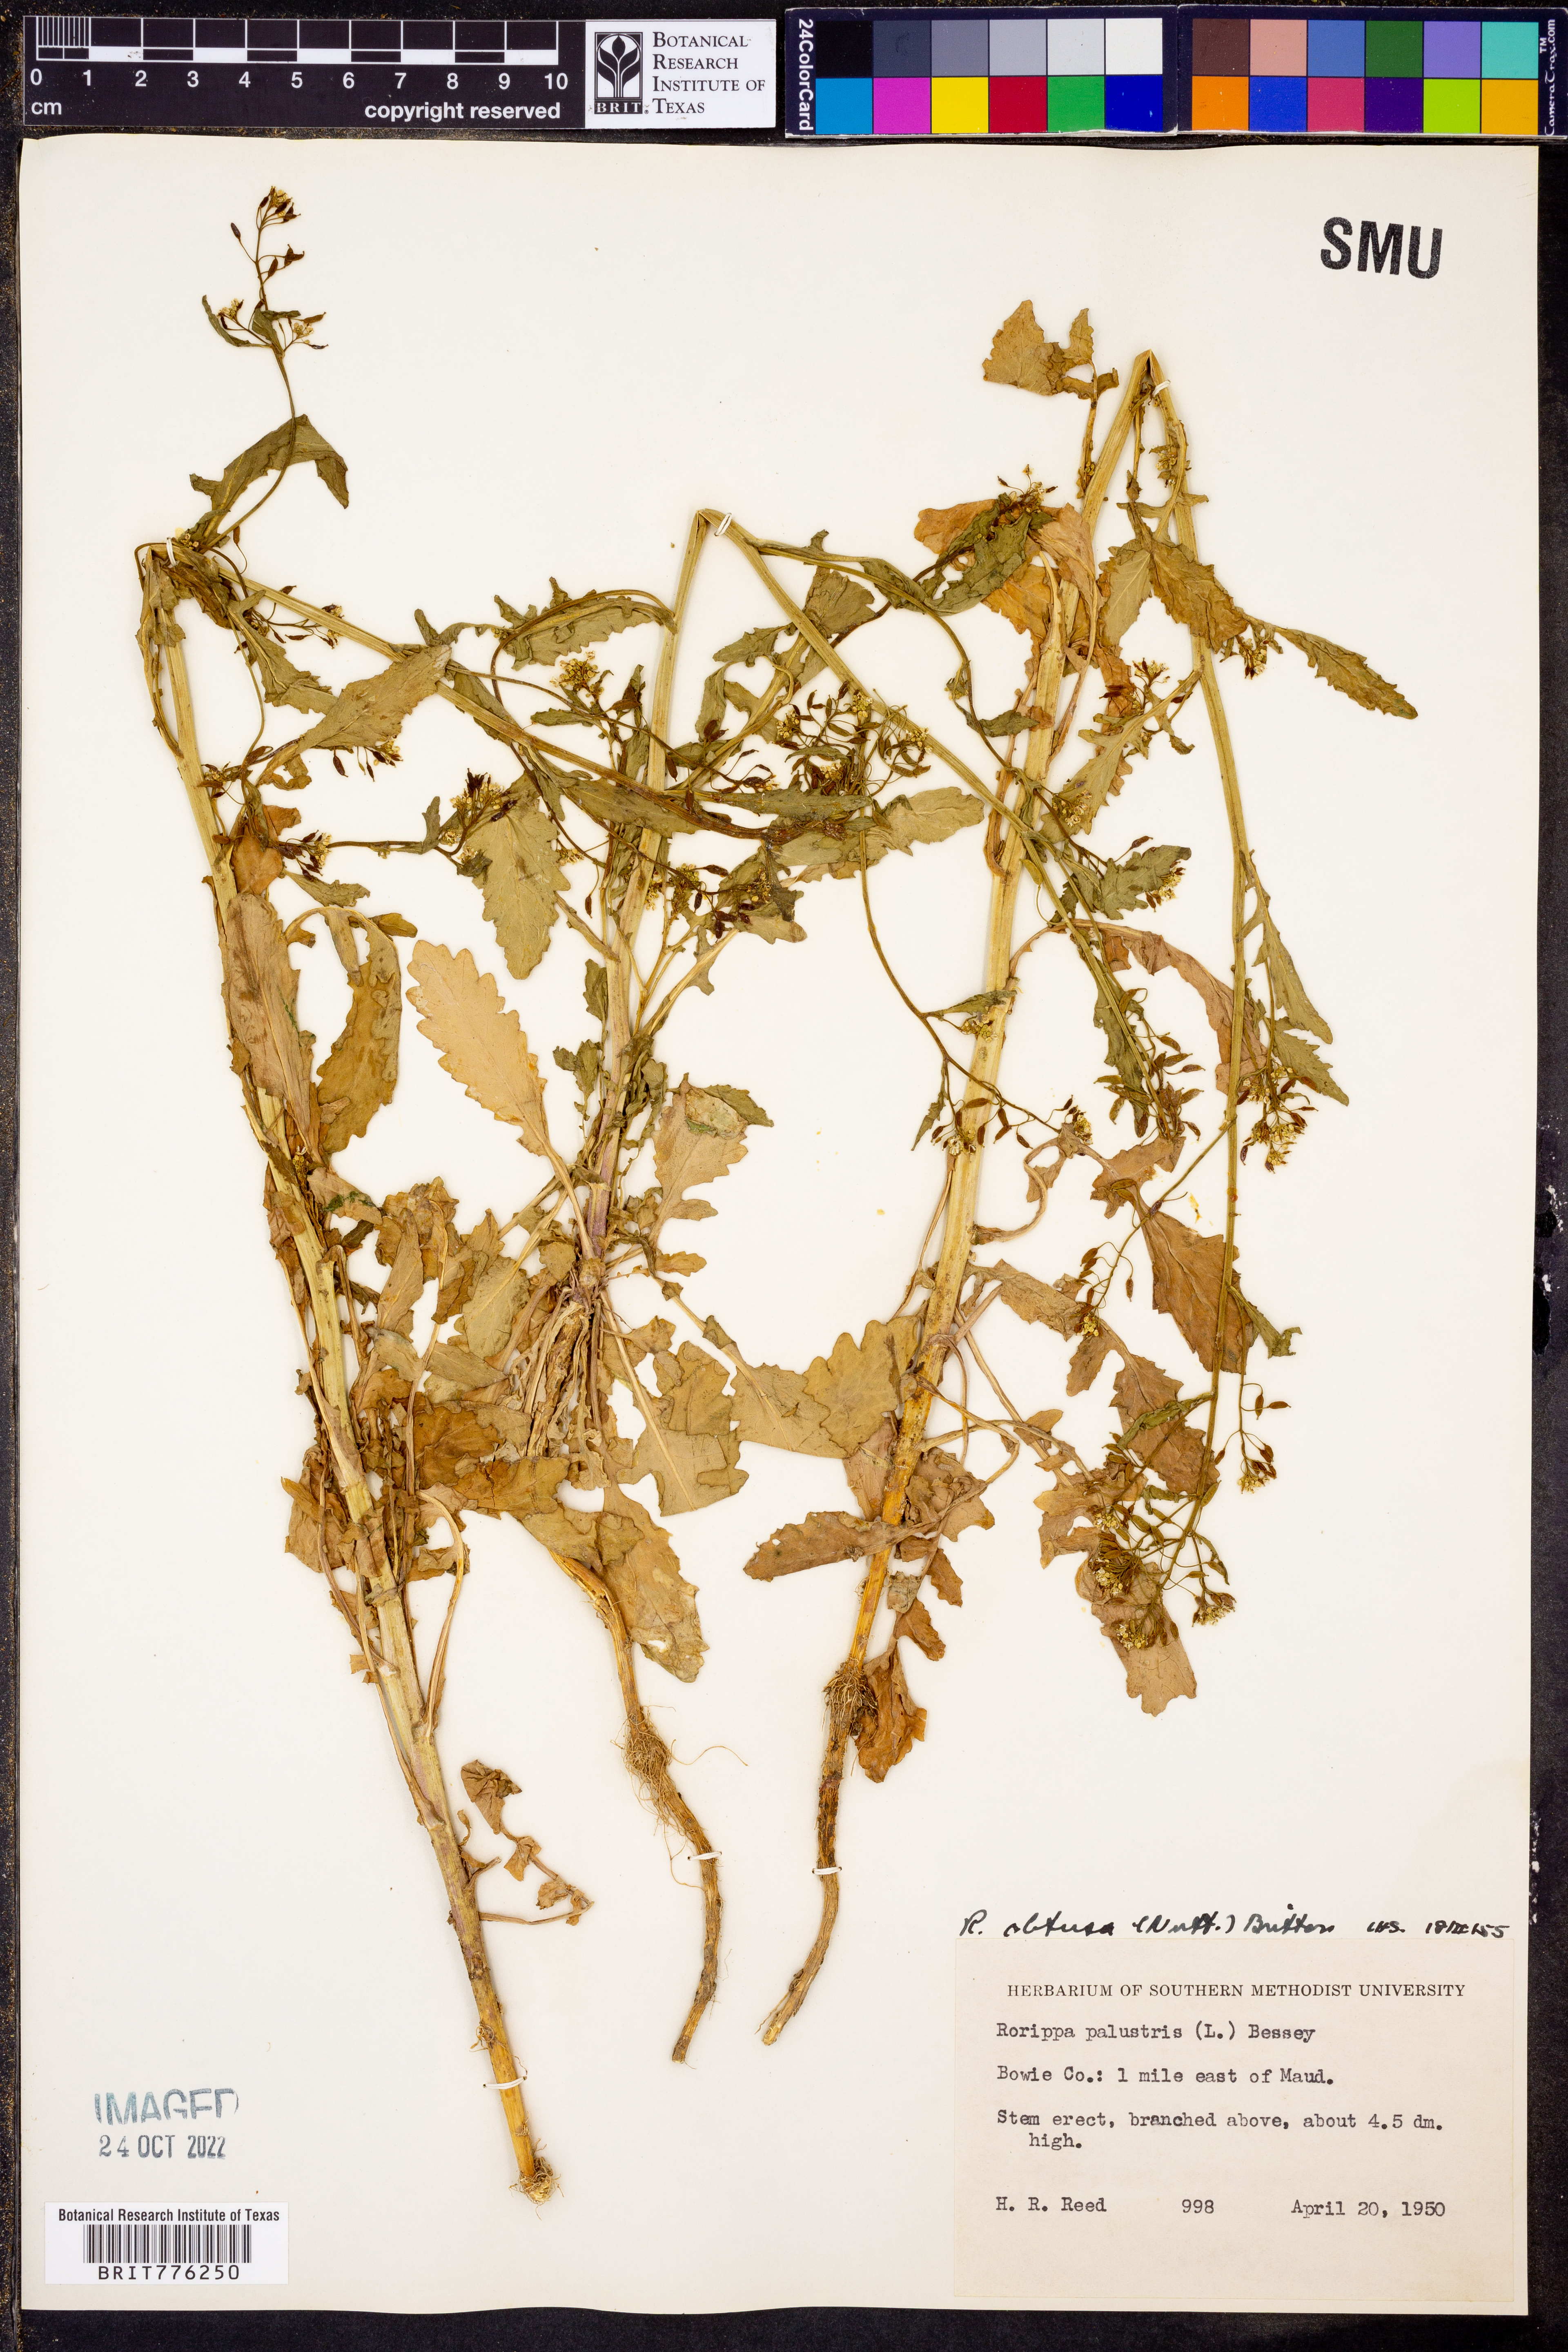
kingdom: Plantae
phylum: Tracheophyta
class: Magnoliopsida
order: Brassicales
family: Brassicaceae
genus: Rorippa
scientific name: Rorippa teres
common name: Southern marsh yellowcress
